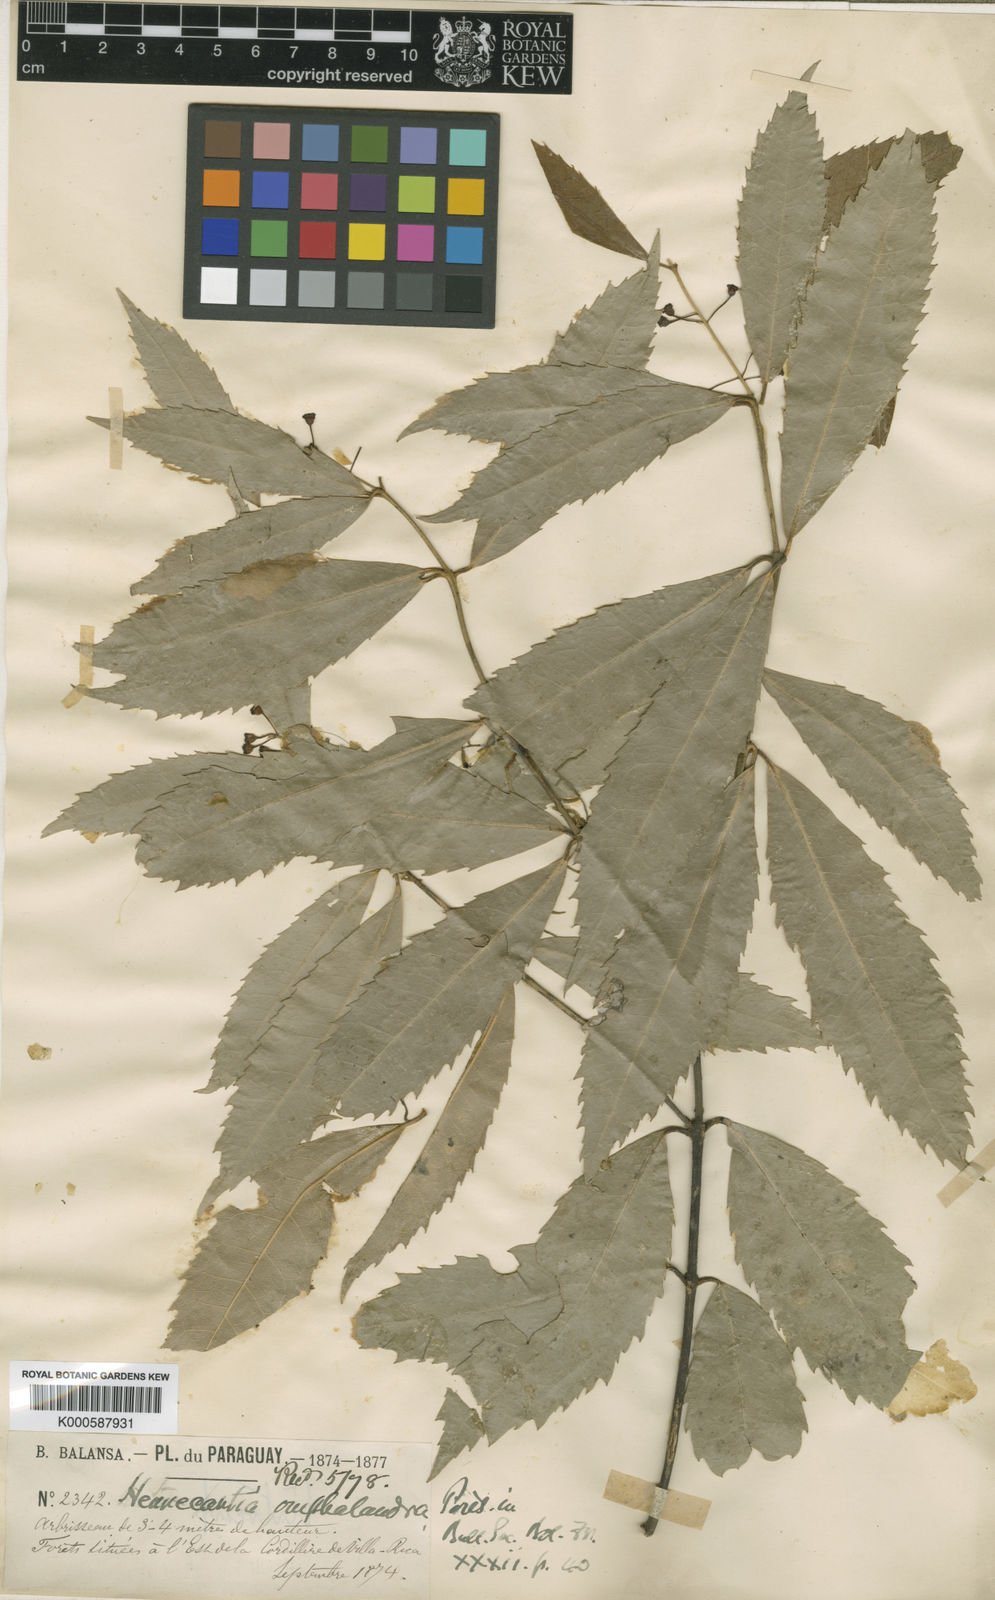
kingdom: Plantae
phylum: Tracheophyta
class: Magnoliopsida
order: Laurales
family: Monimiaceae
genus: Hennecartia
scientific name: Hennecartia omphalandra
